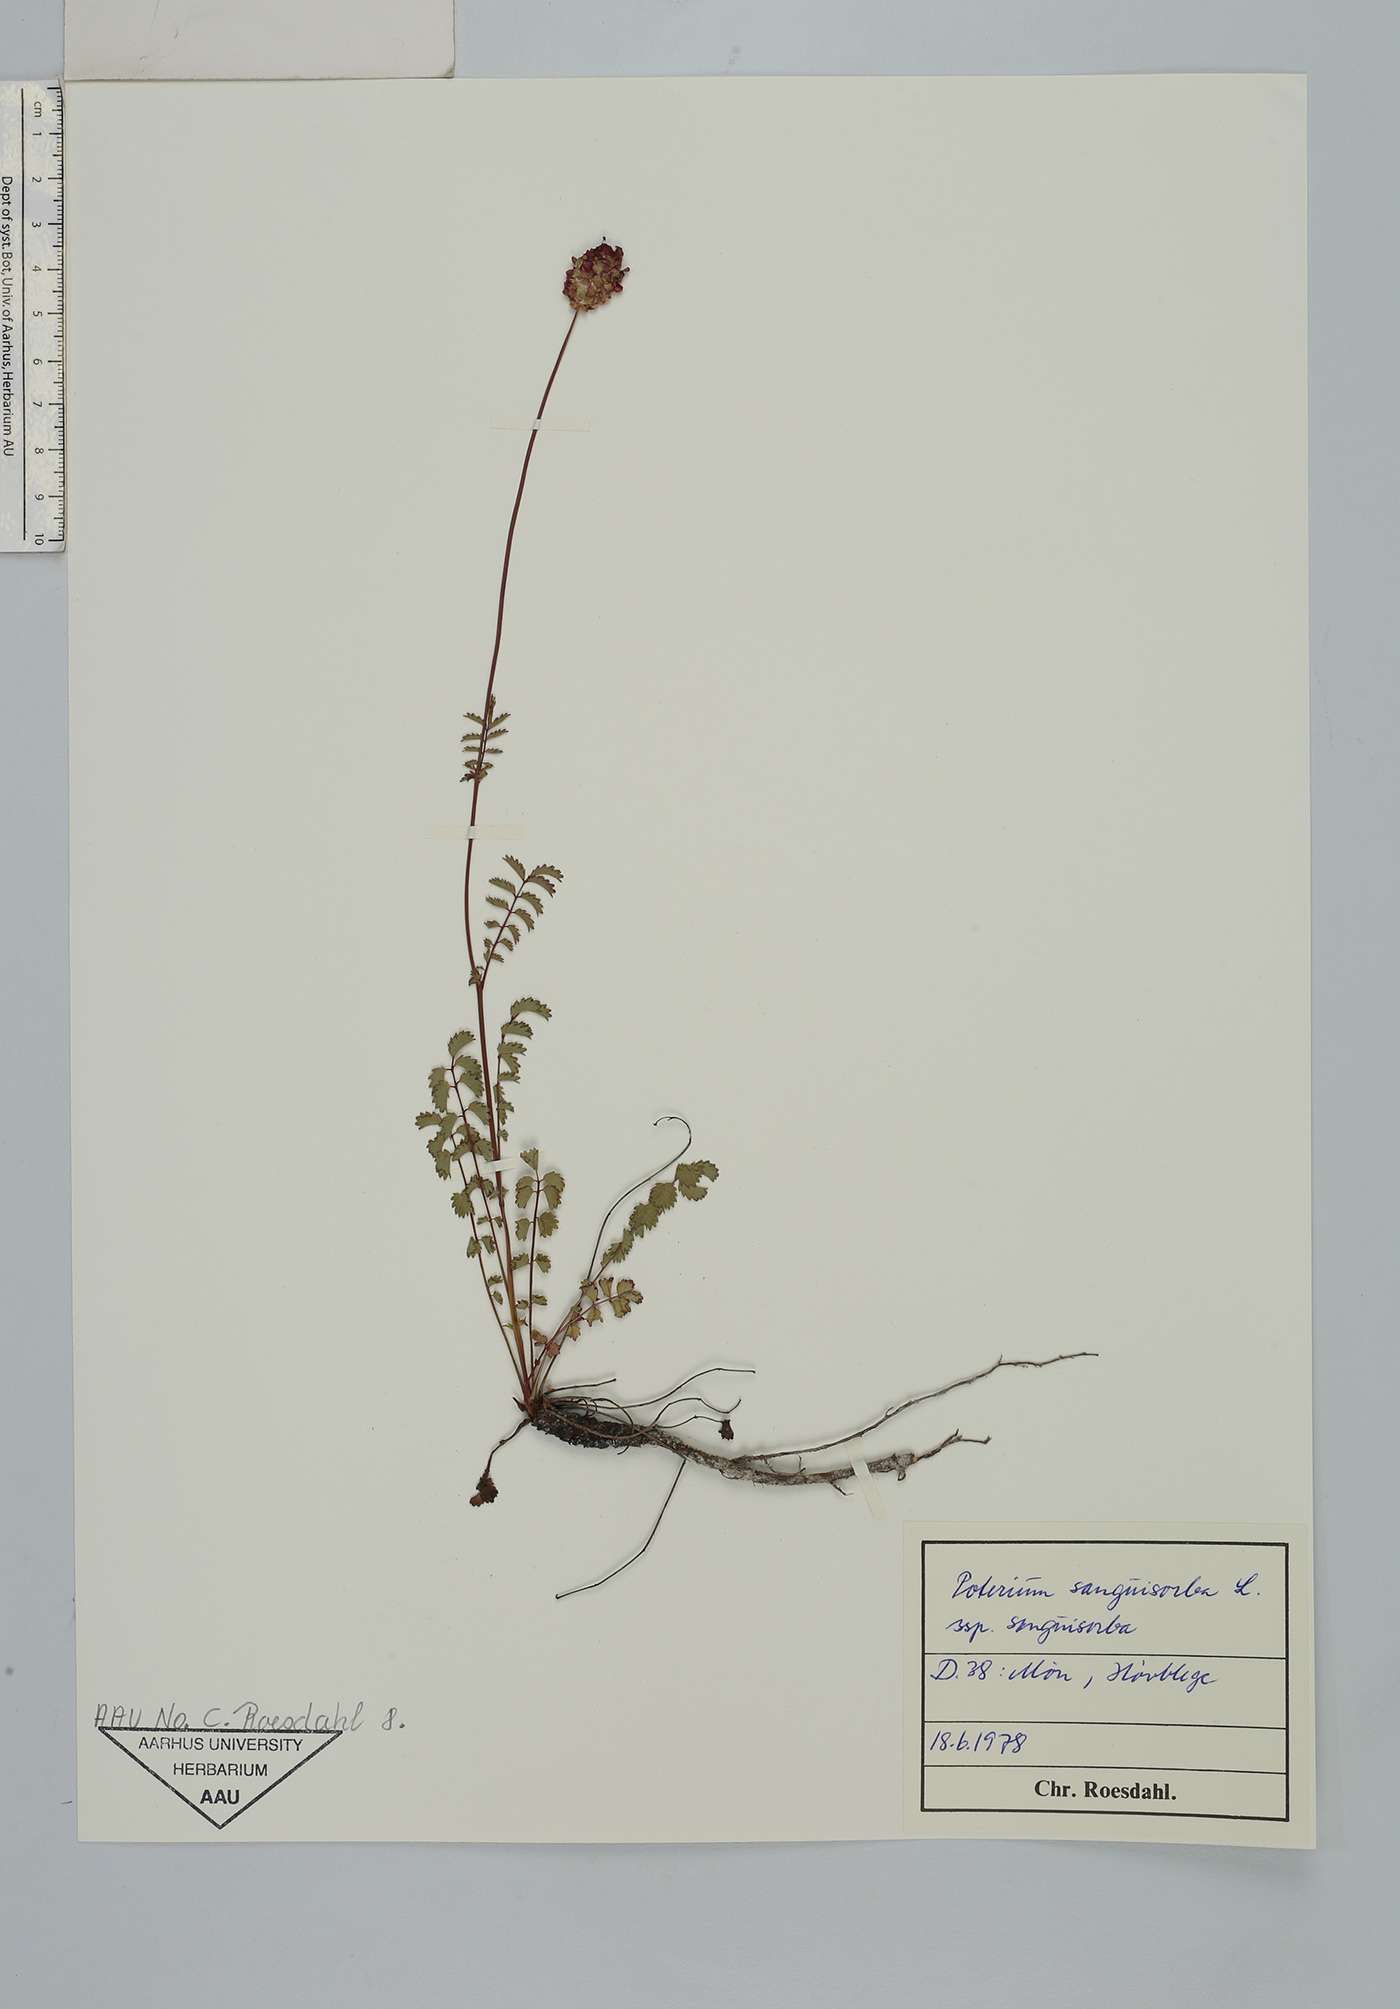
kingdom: Plantae
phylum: Tracheophyta
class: Magnoliopsida
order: Rosales
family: Rosaceae
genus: Poterium
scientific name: Poterium sanguisorba
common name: Salad burnet
